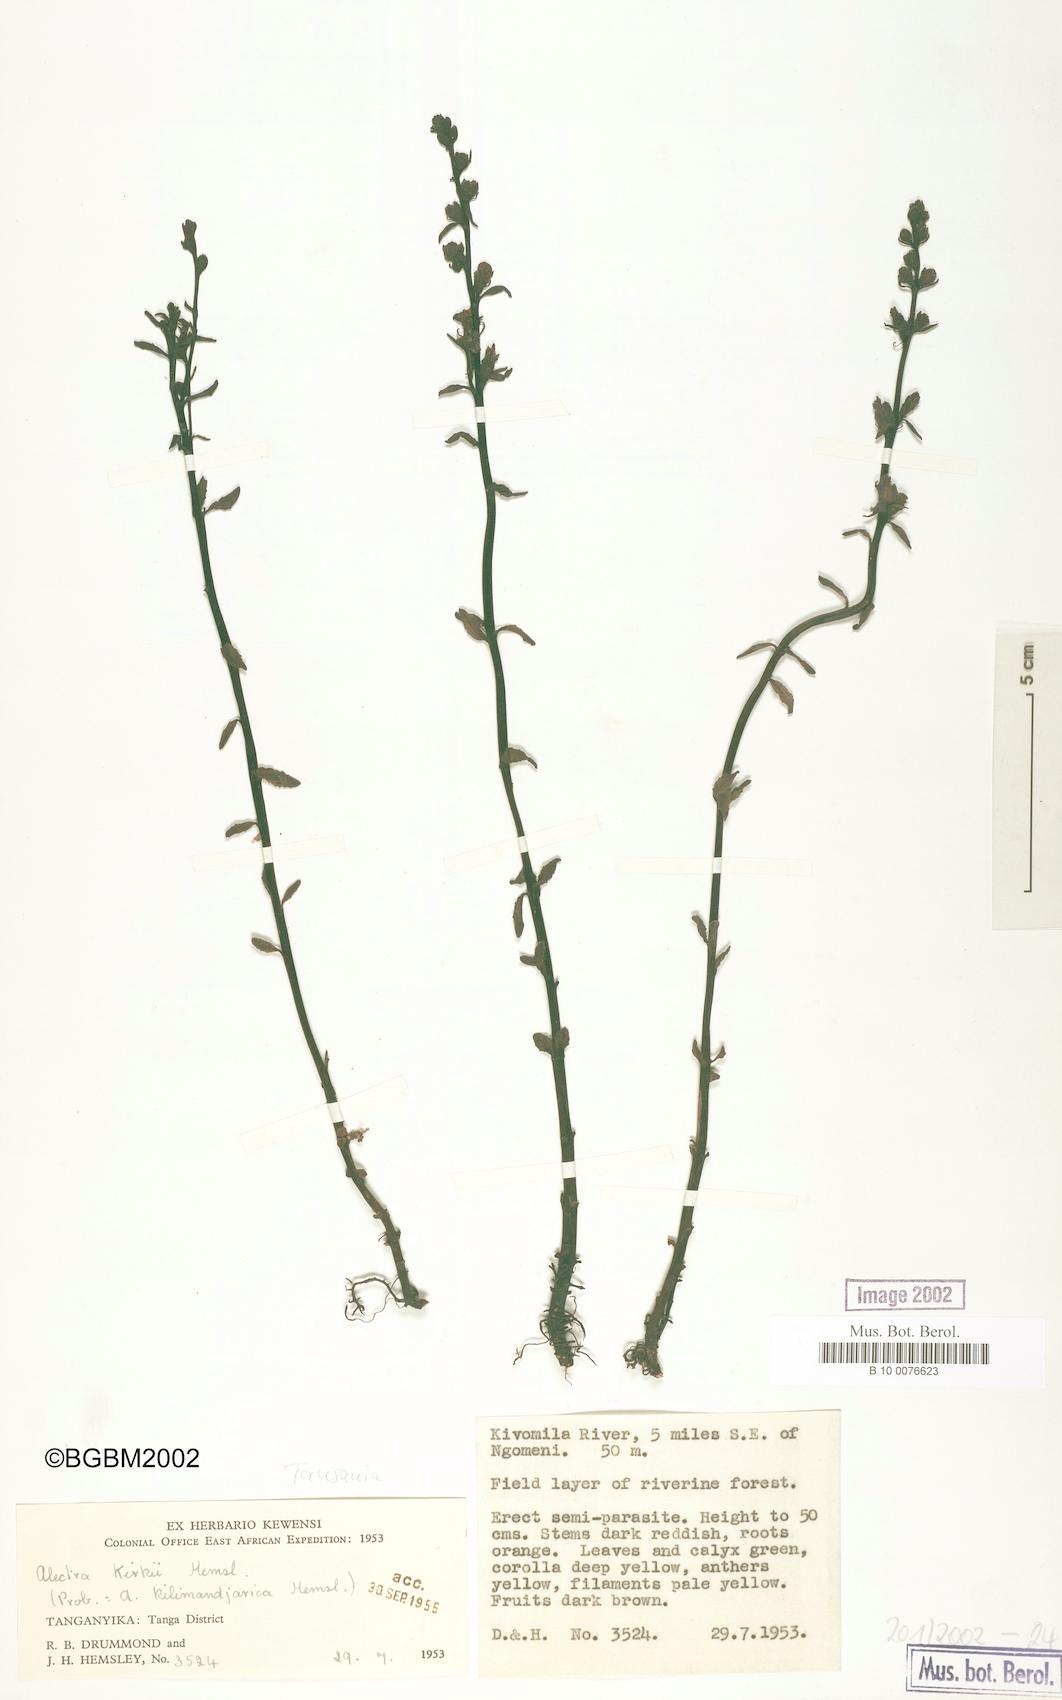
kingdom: Plantae
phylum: Tracheophyta
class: Magnoliopsida
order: Lamiales
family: Orobanchaceae
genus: Alectra
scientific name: Alectra orobanchoides
